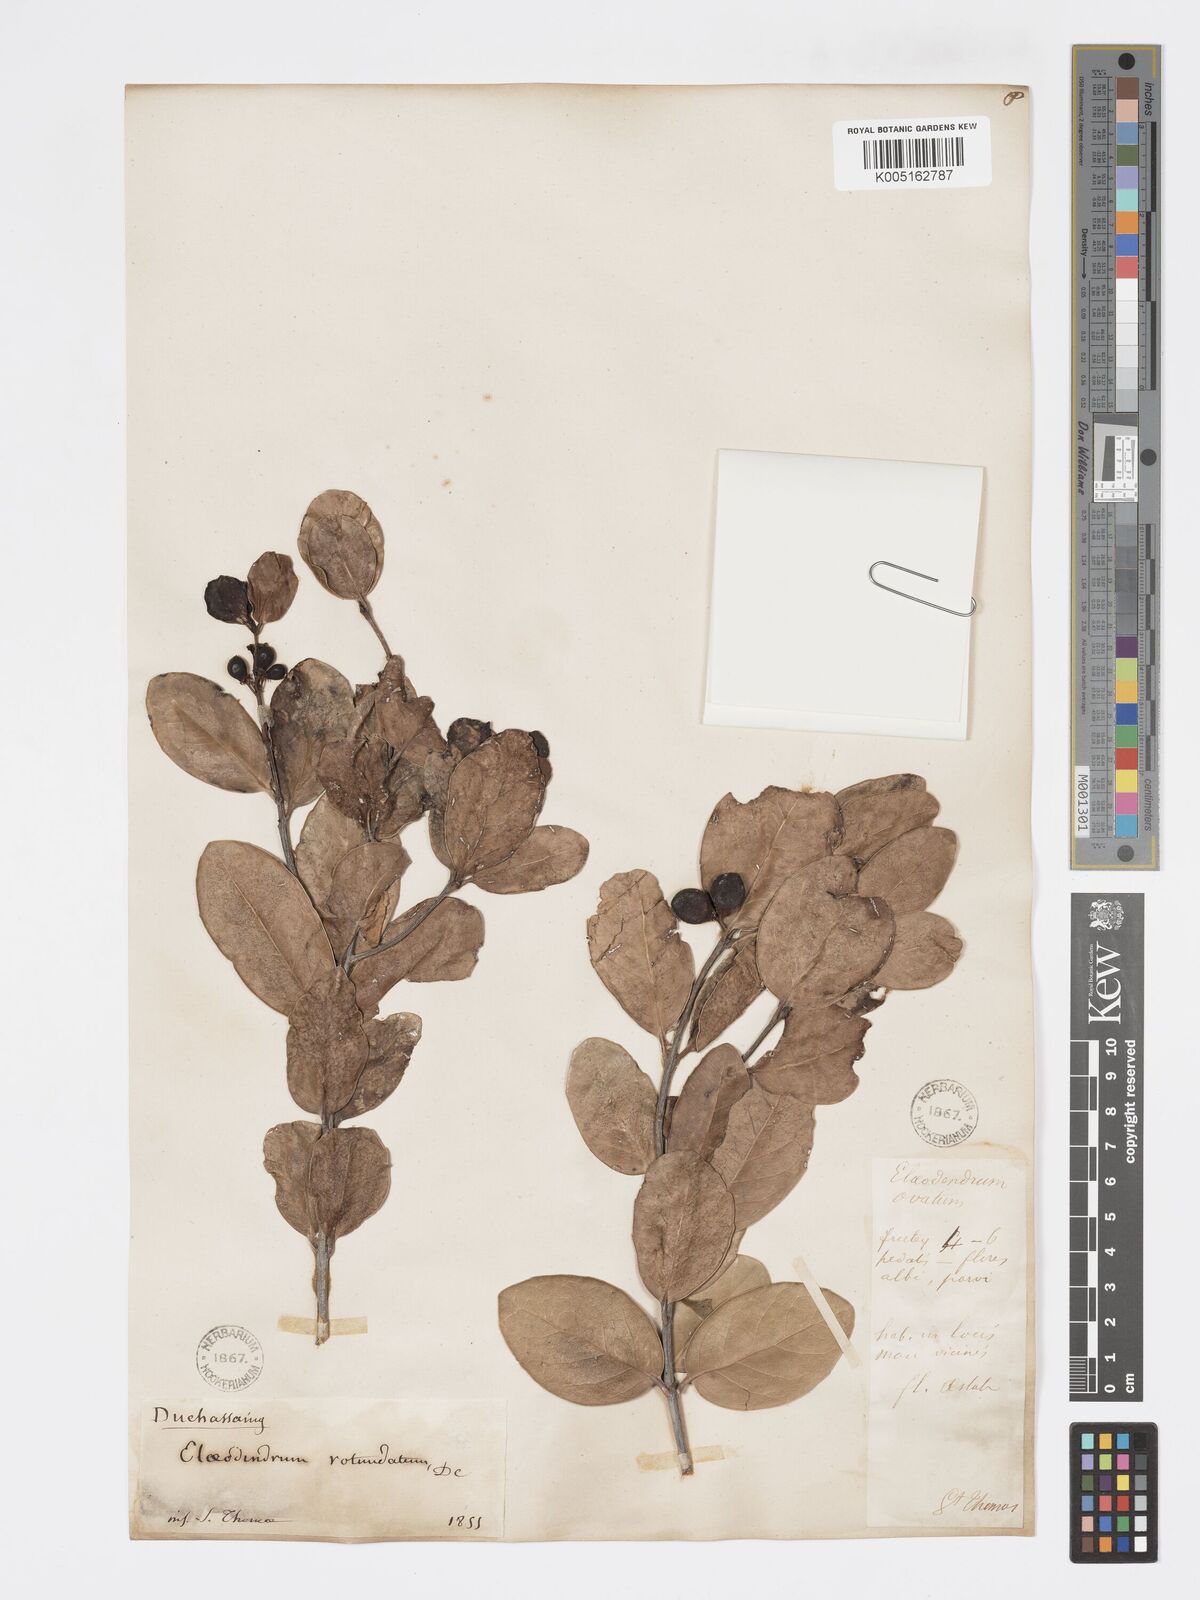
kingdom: Plantae
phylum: Tracheophyta
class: Magnoliopsida
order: Celastrales
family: Celastraceae
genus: Elaeodendron
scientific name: Elaeodendron
